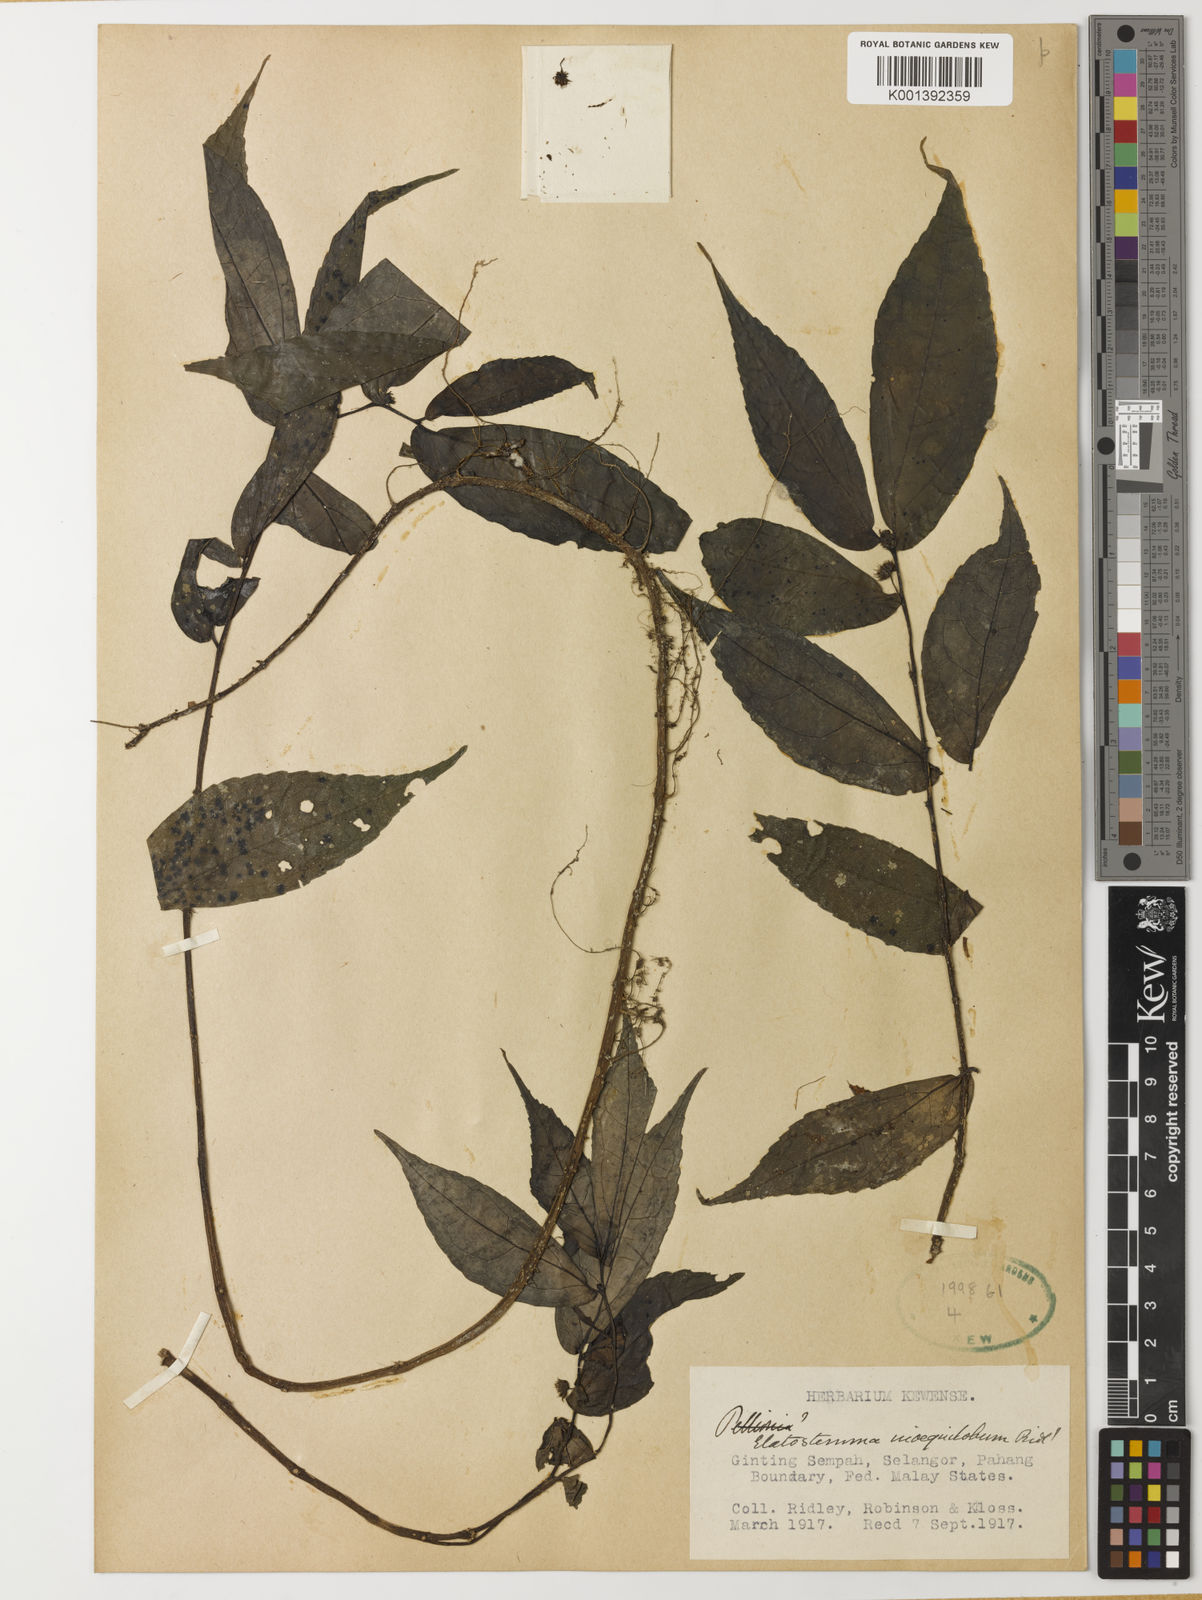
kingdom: Plantae
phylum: Tracheophyta
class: Magnoliopsida
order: Rosales
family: Urticaceae
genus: Elatostema
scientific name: Elatostema inaequilobum
